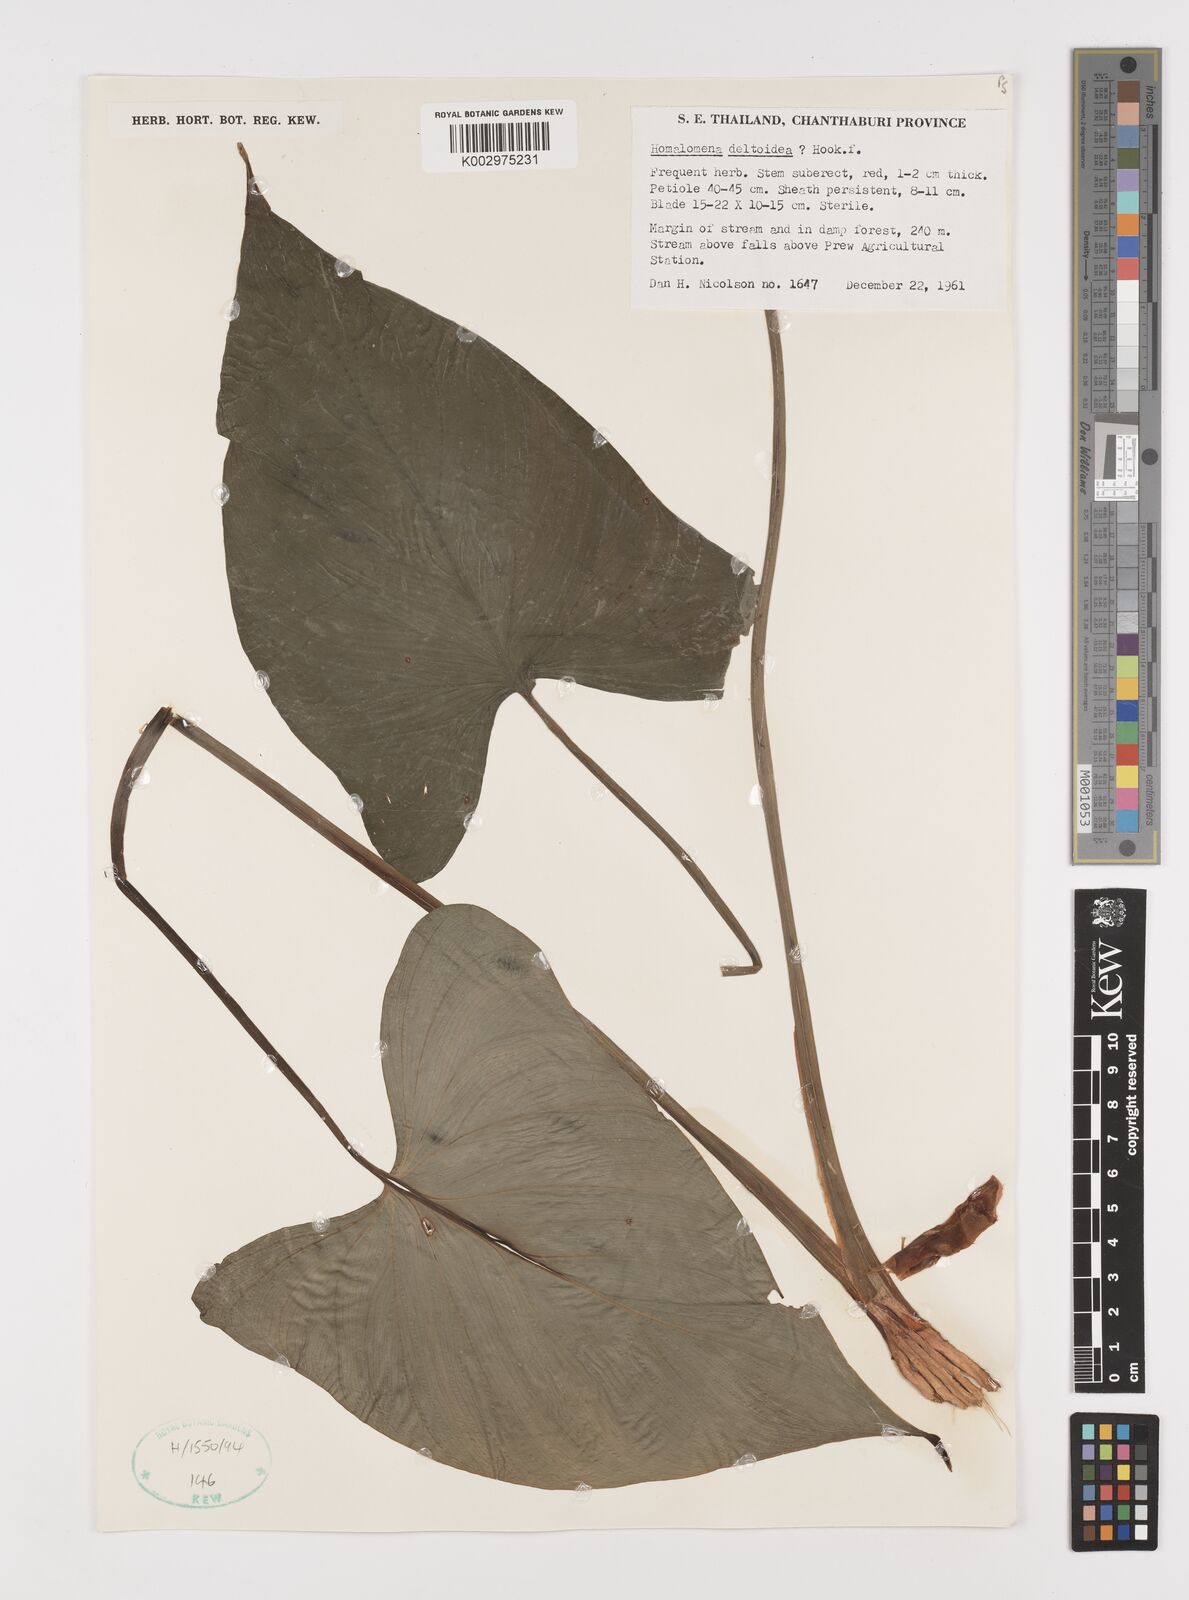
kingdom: Plantae
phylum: Tracheophyta
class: Liliopsida
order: Alismatales
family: Araceae
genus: Homalomena
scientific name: Homalomena griffithii
